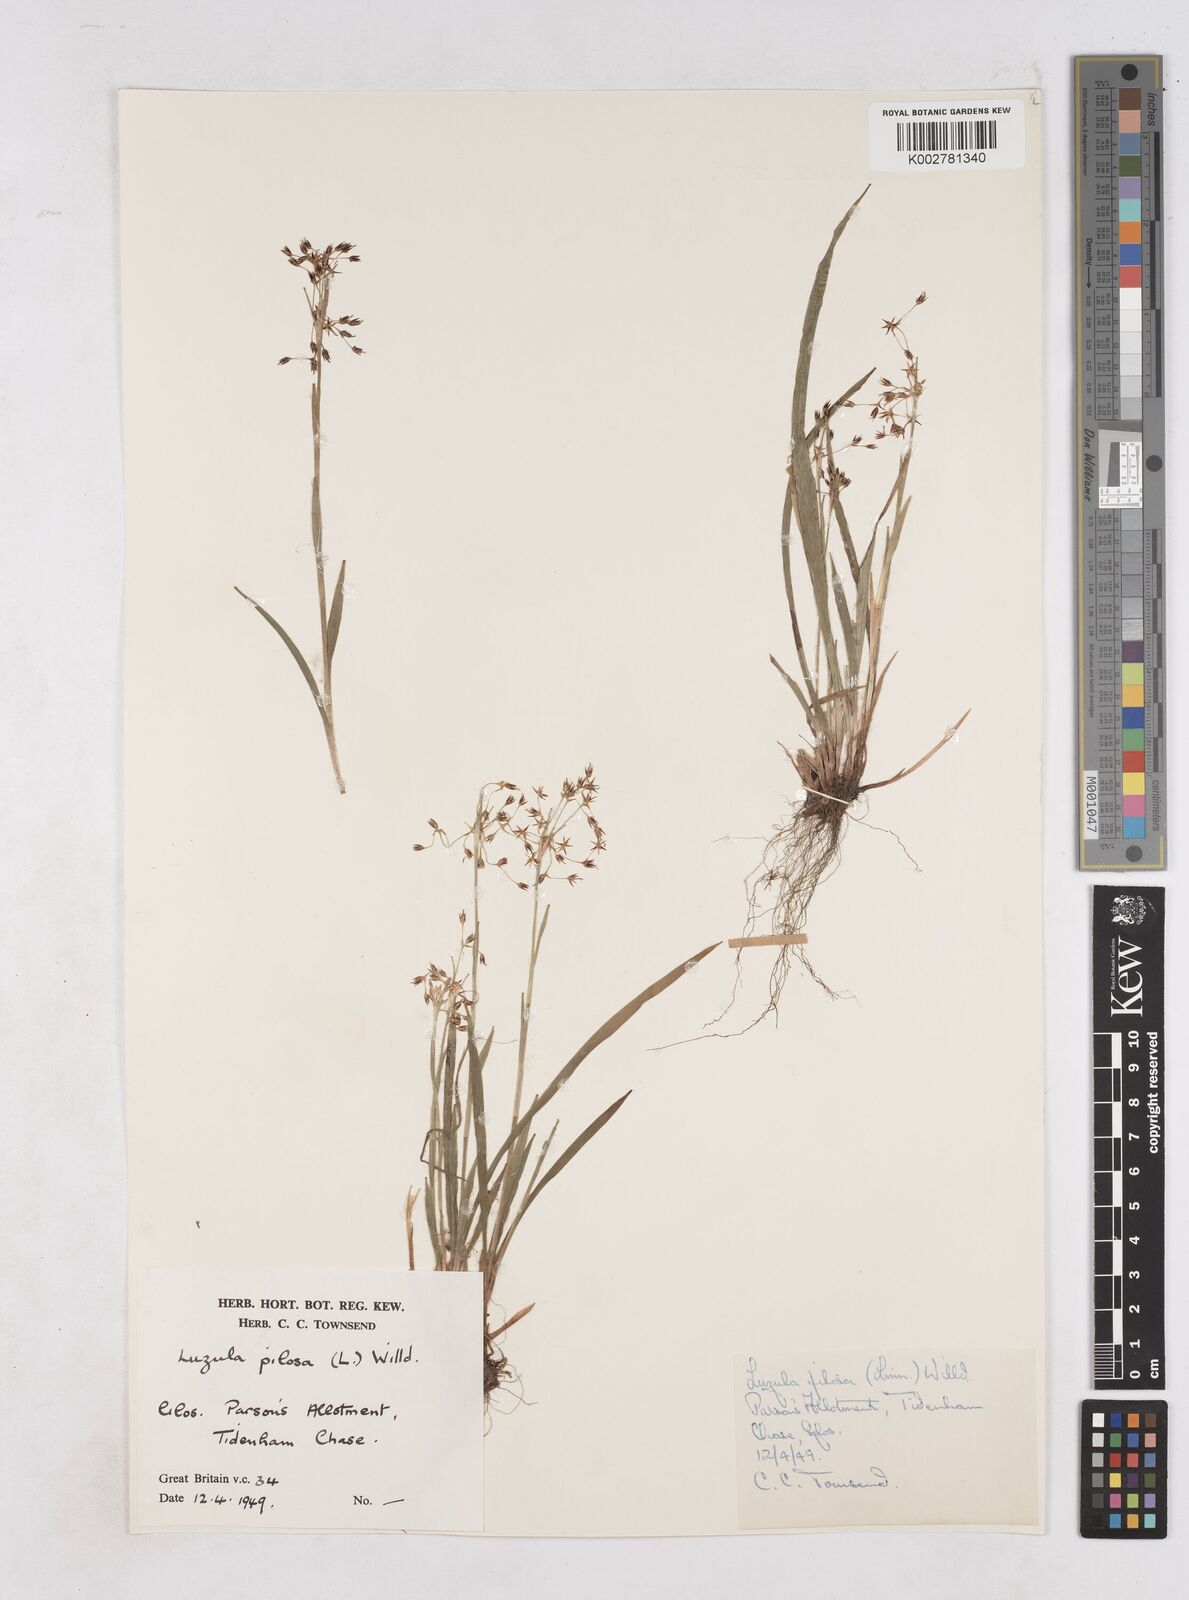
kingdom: Plantae
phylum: Tracheophyta
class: Liliopsida
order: Poales
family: Juncaceae
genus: Luzula
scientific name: Luzula pilosa
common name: Hairy wood-rush
